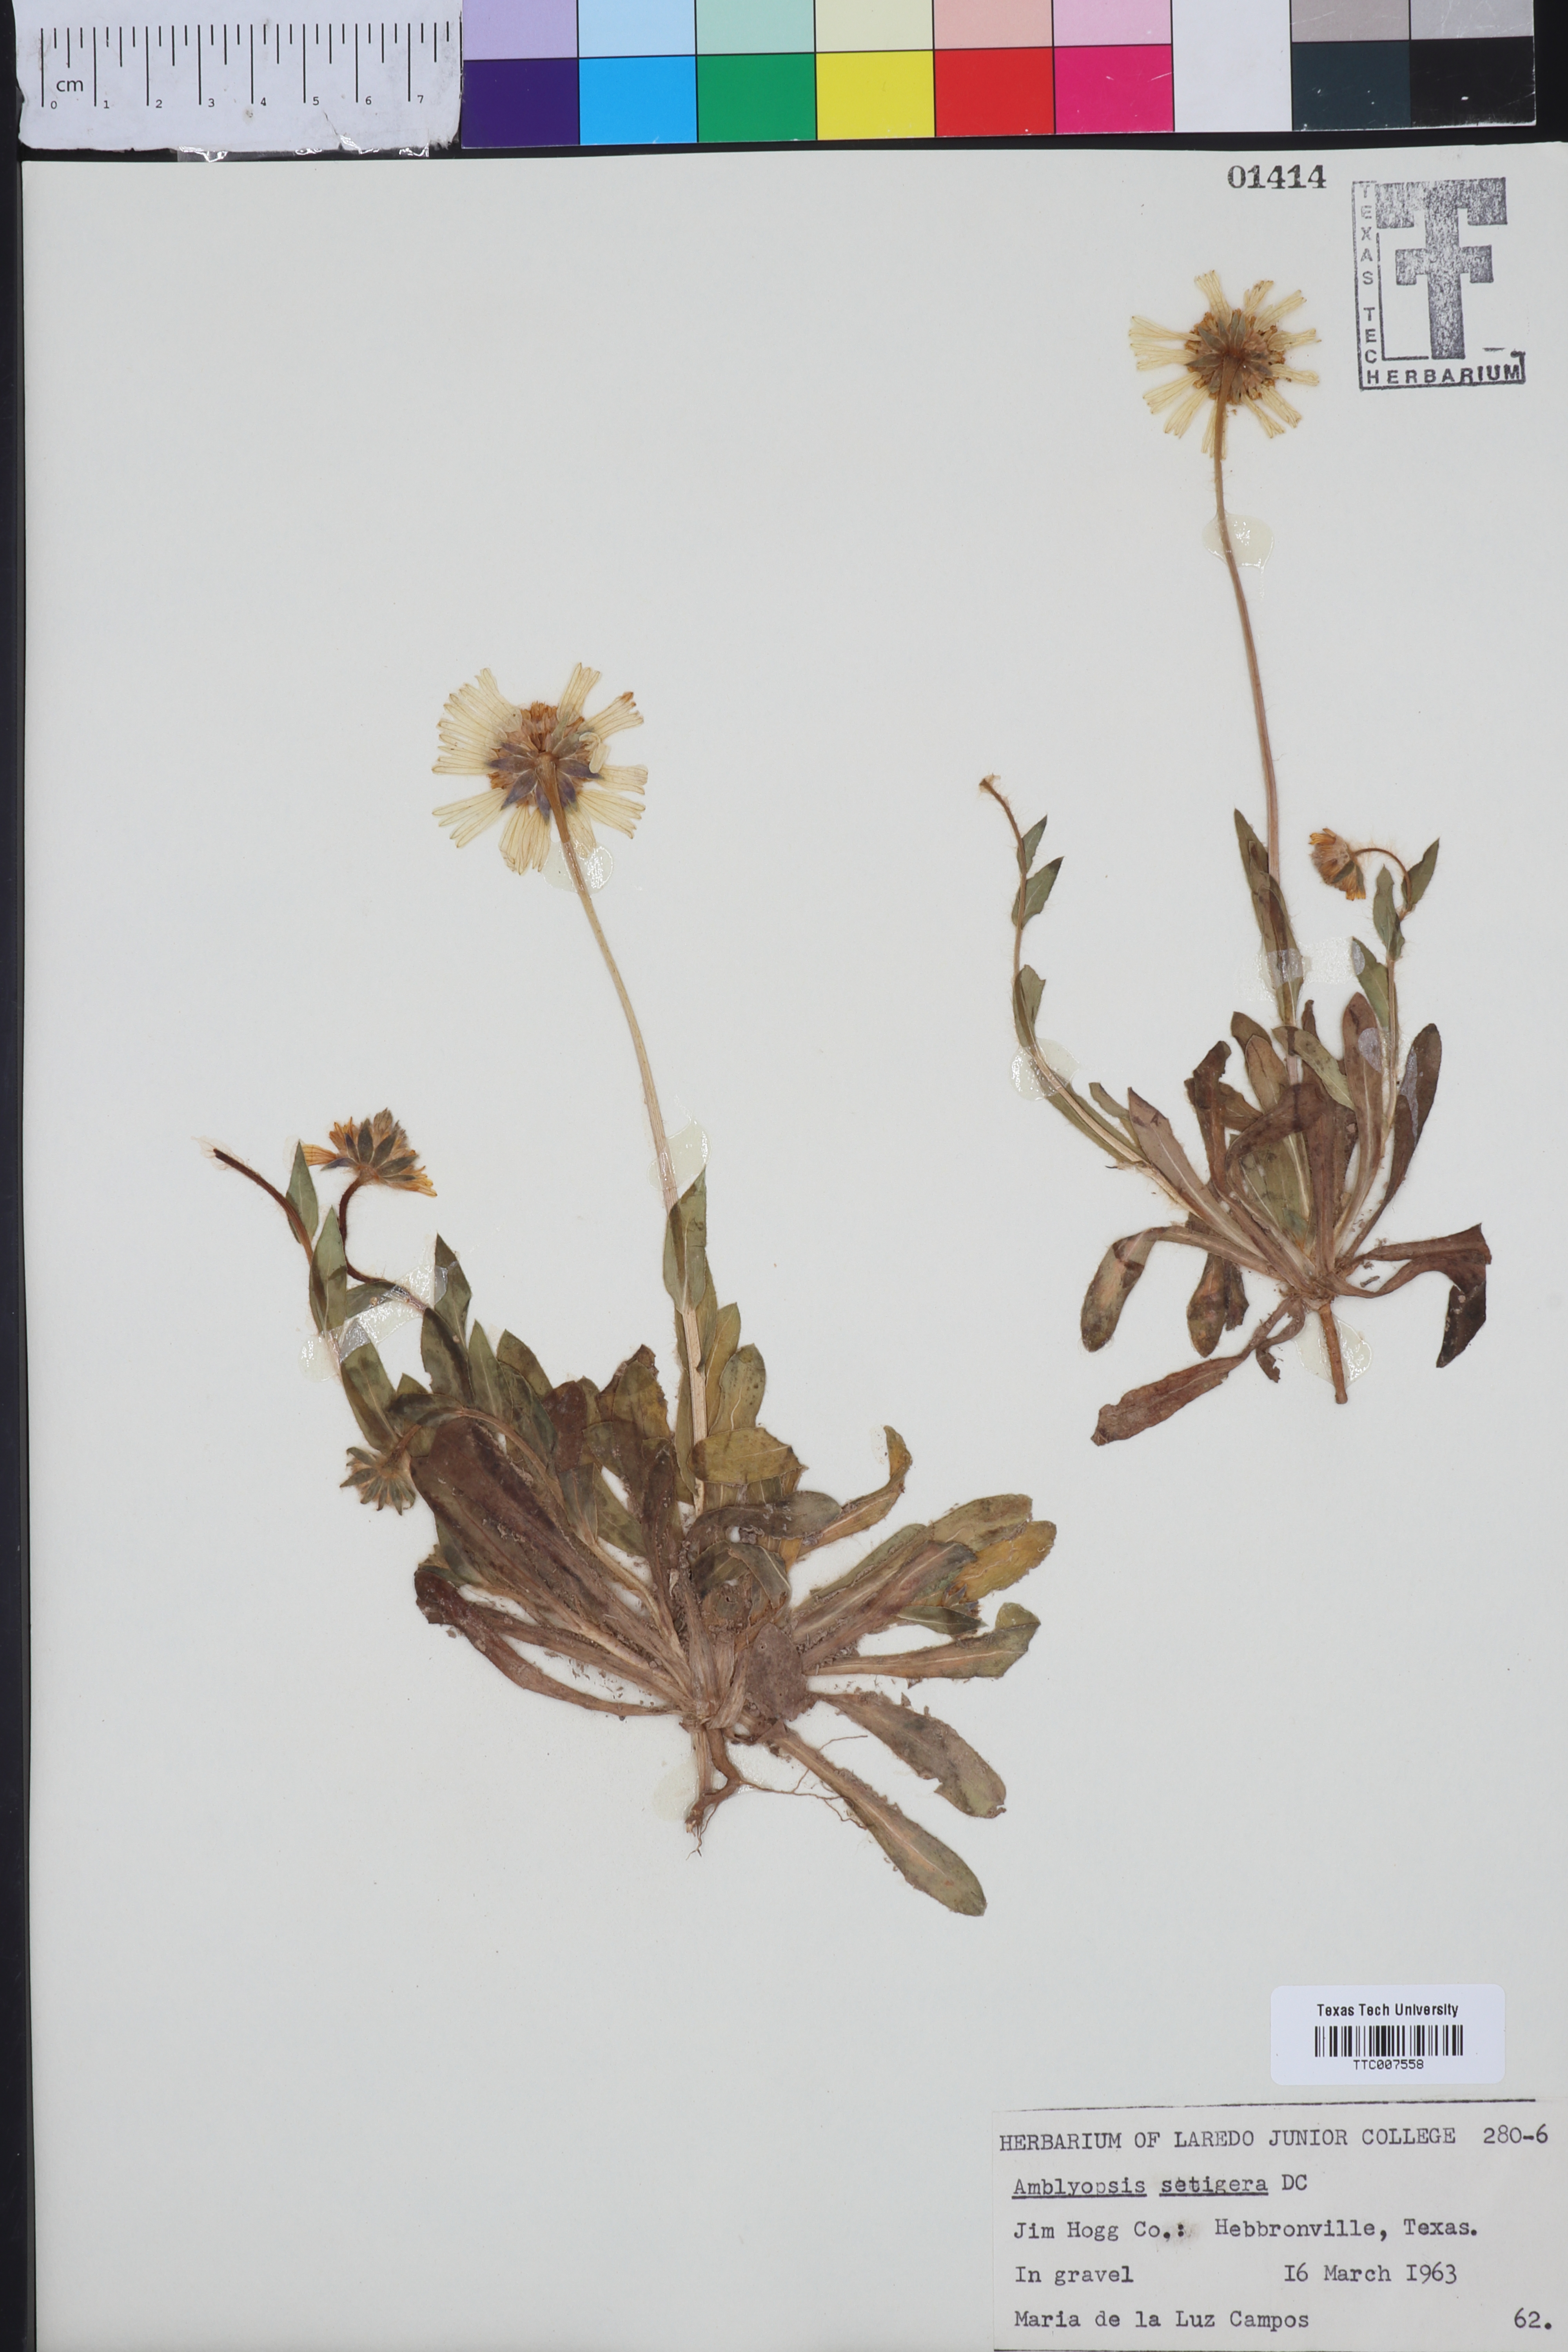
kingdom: Plantae
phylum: Tracheophyta
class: Magnoliopsida
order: Asterales
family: Asteraceae
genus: Amblyolepis
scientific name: Amblyolepis setigera
